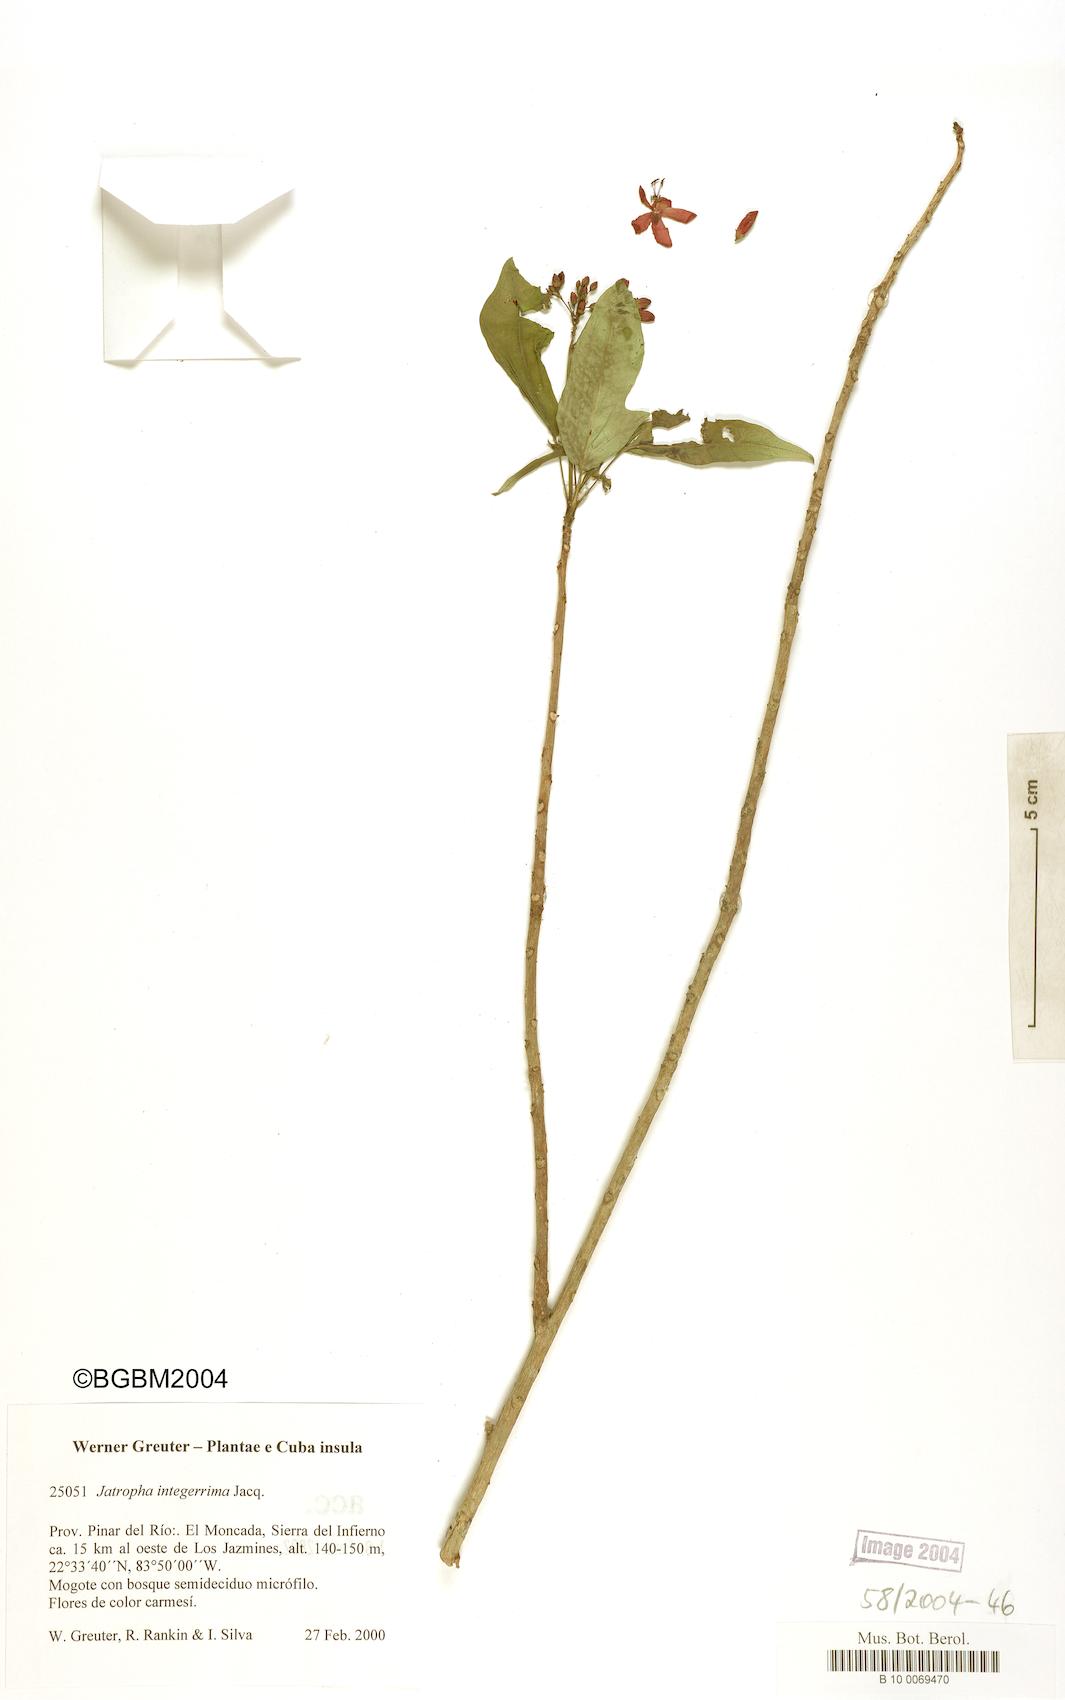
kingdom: Plantae
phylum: Tracheophyta
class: Magnoliopsida
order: Malpighiales
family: Euphorbiaceae
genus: Jatropha
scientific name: Jatropha integerrima
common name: Peregrina
